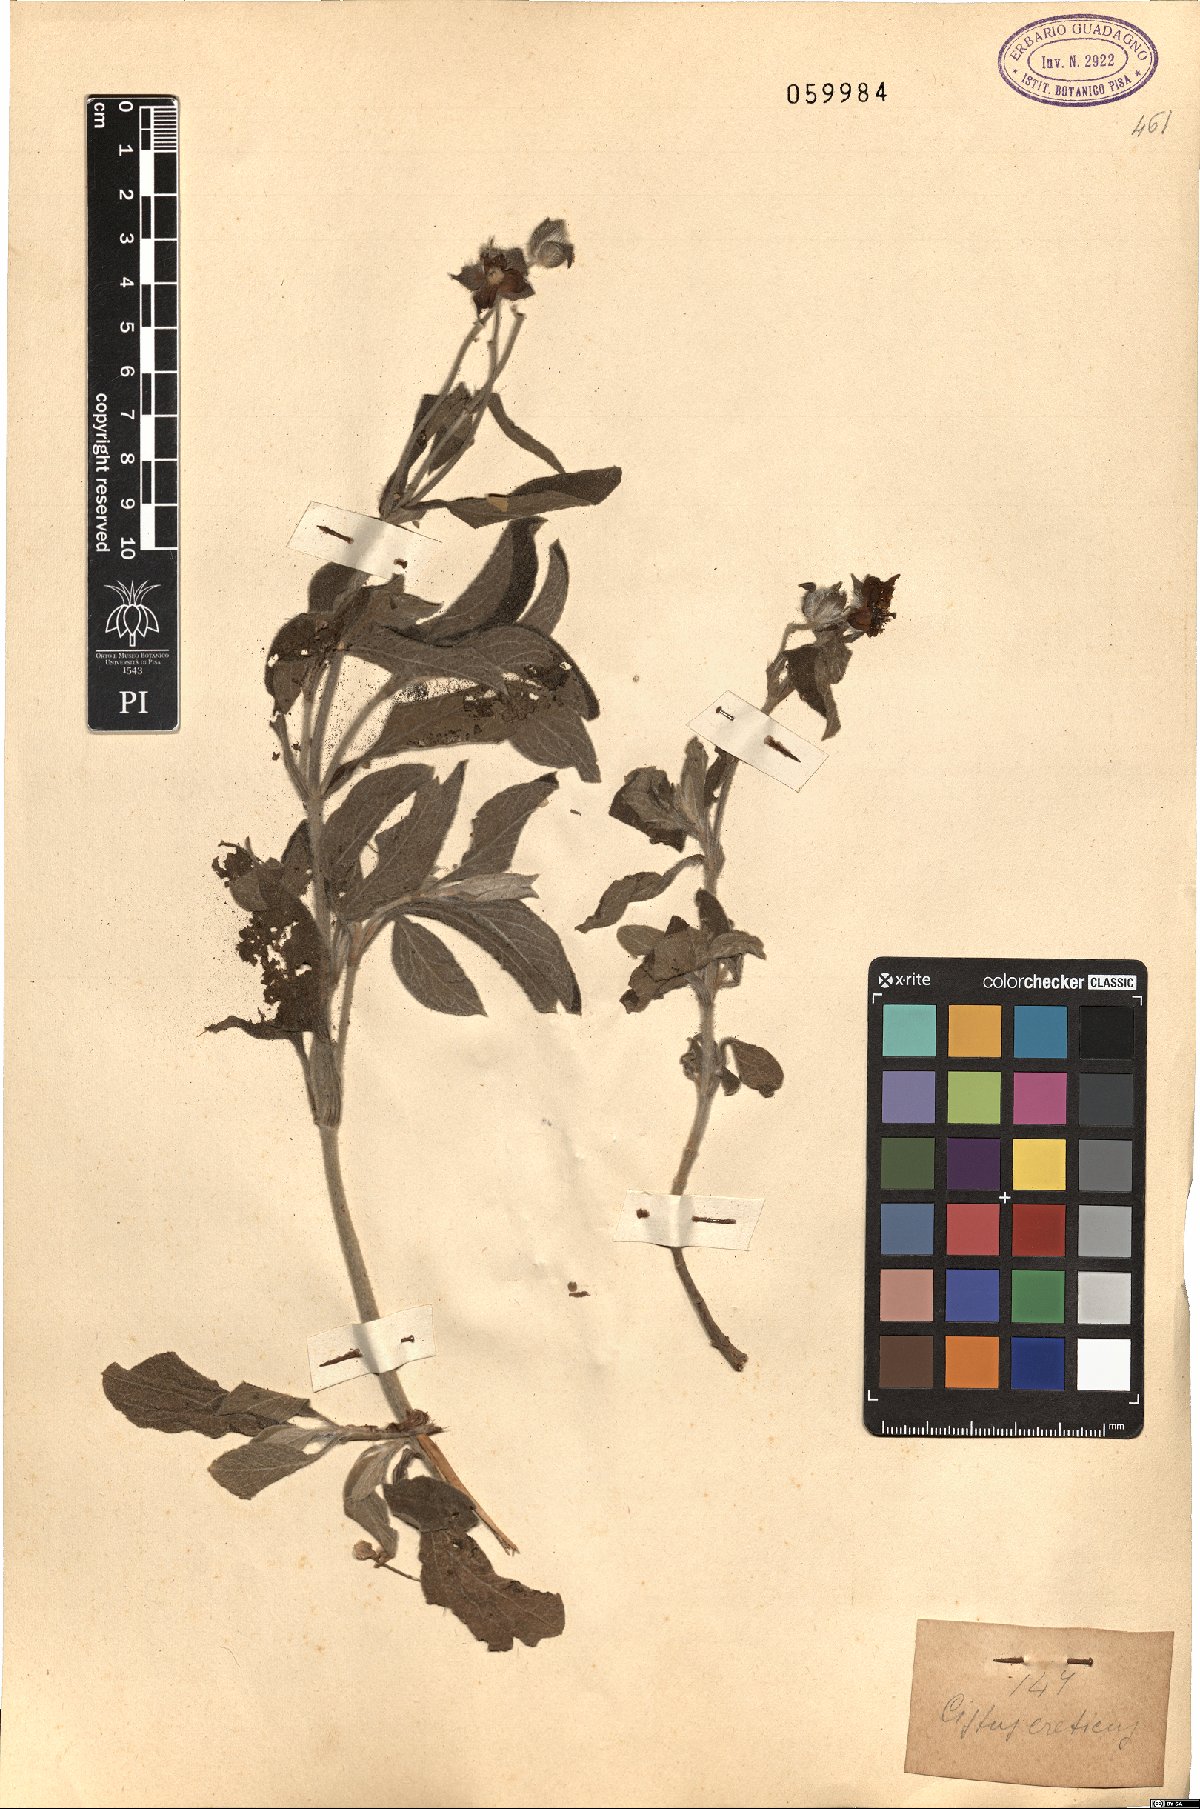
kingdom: Plantae
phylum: Tracheophyta
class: Magnoliopsida
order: Malvales
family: Cistaceae
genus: Cistus
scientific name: Cistus creticus
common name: Cretan rockrose
